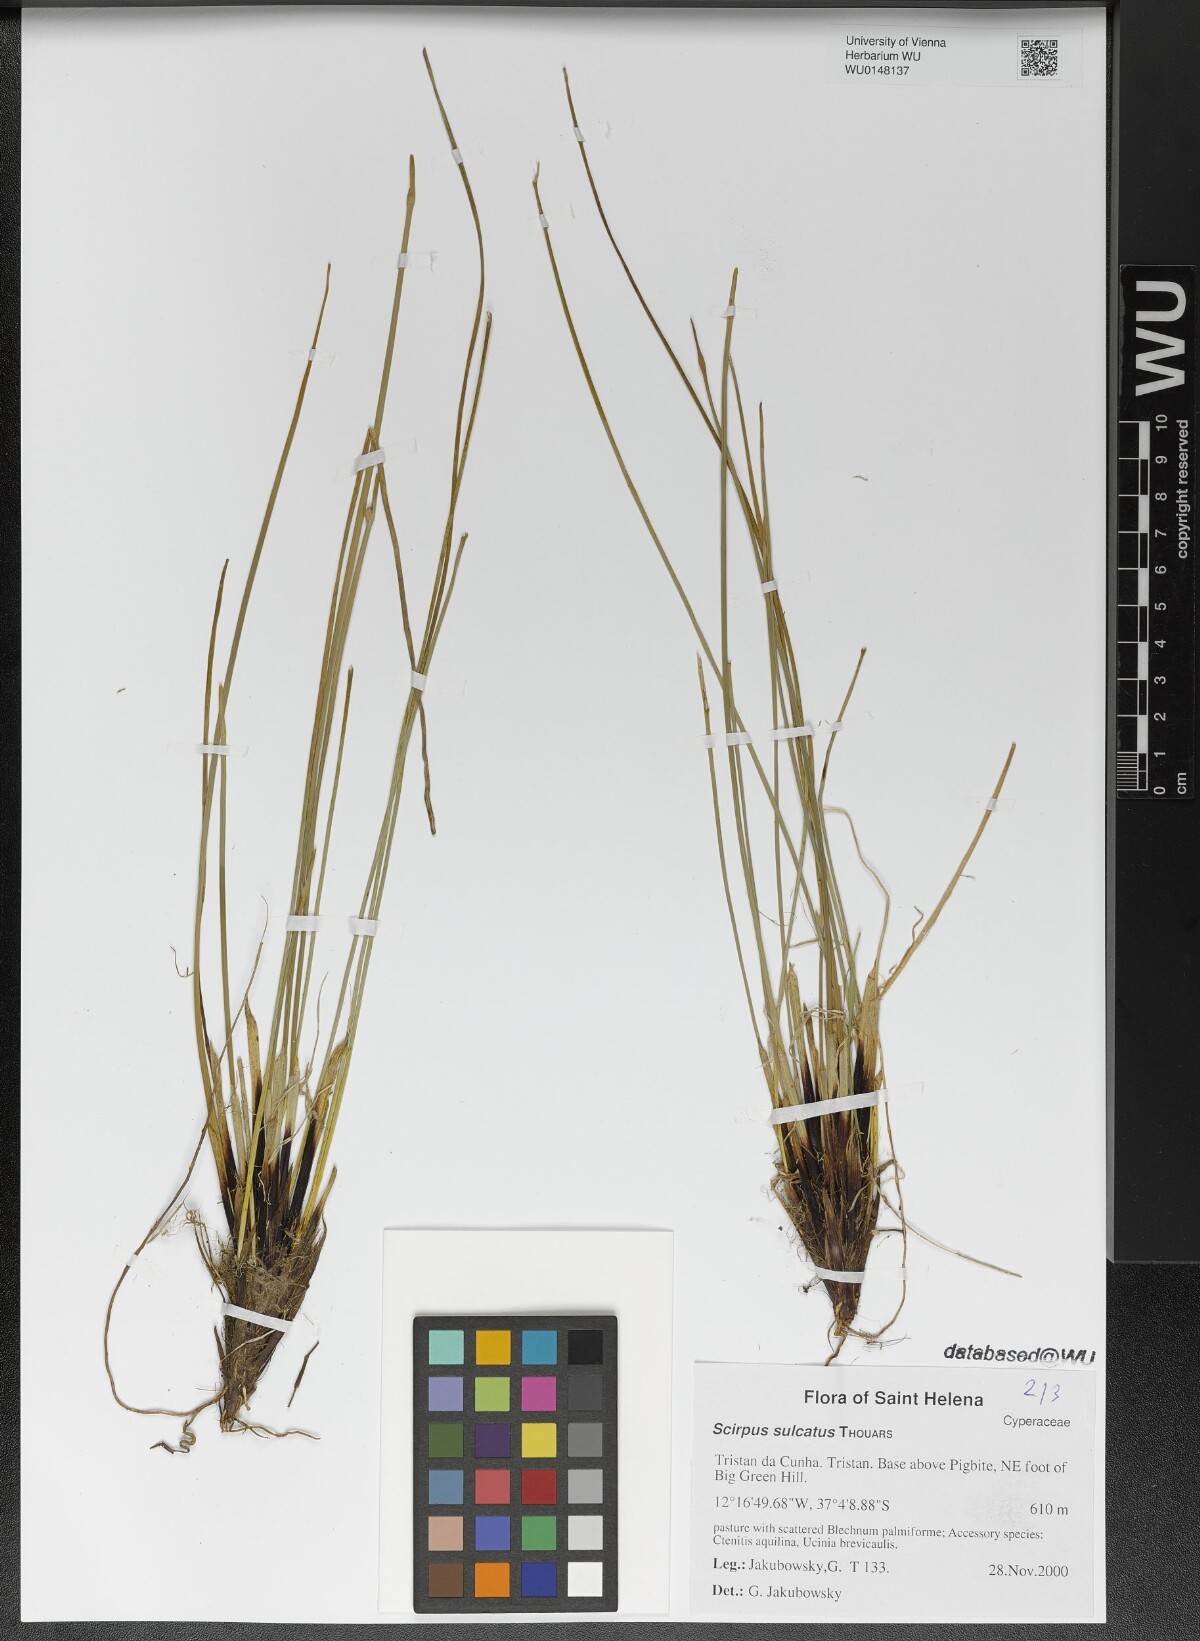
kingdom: Plantae
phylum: Tracheophyta
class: Liliopsida
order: Poales
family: Cyperaceae
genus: Isolepis
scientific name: Isolepis sulcata
